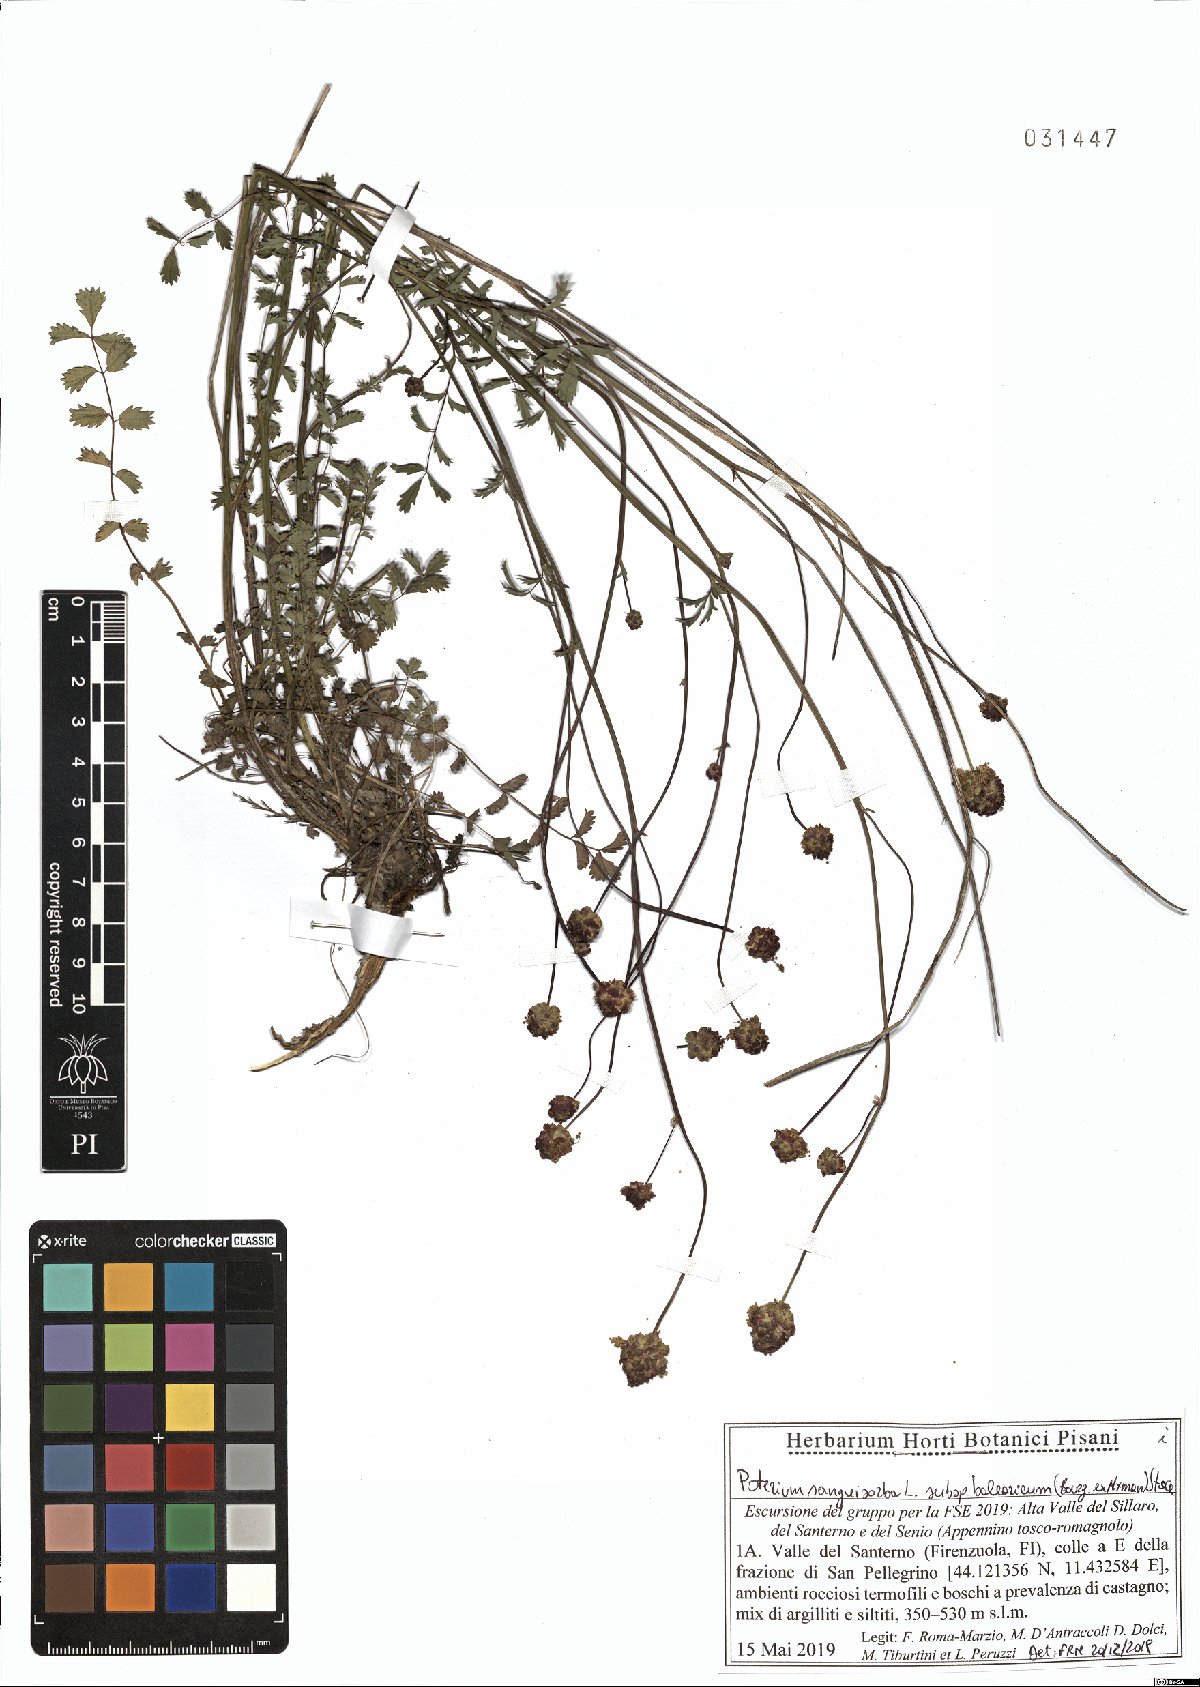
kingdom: Plantae
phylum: Tracheophyta
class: Magnoliopsida
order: Rosales
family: Rosaceae
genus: Poterium
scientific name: Poterium sanguisorba
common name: Salad burnet
